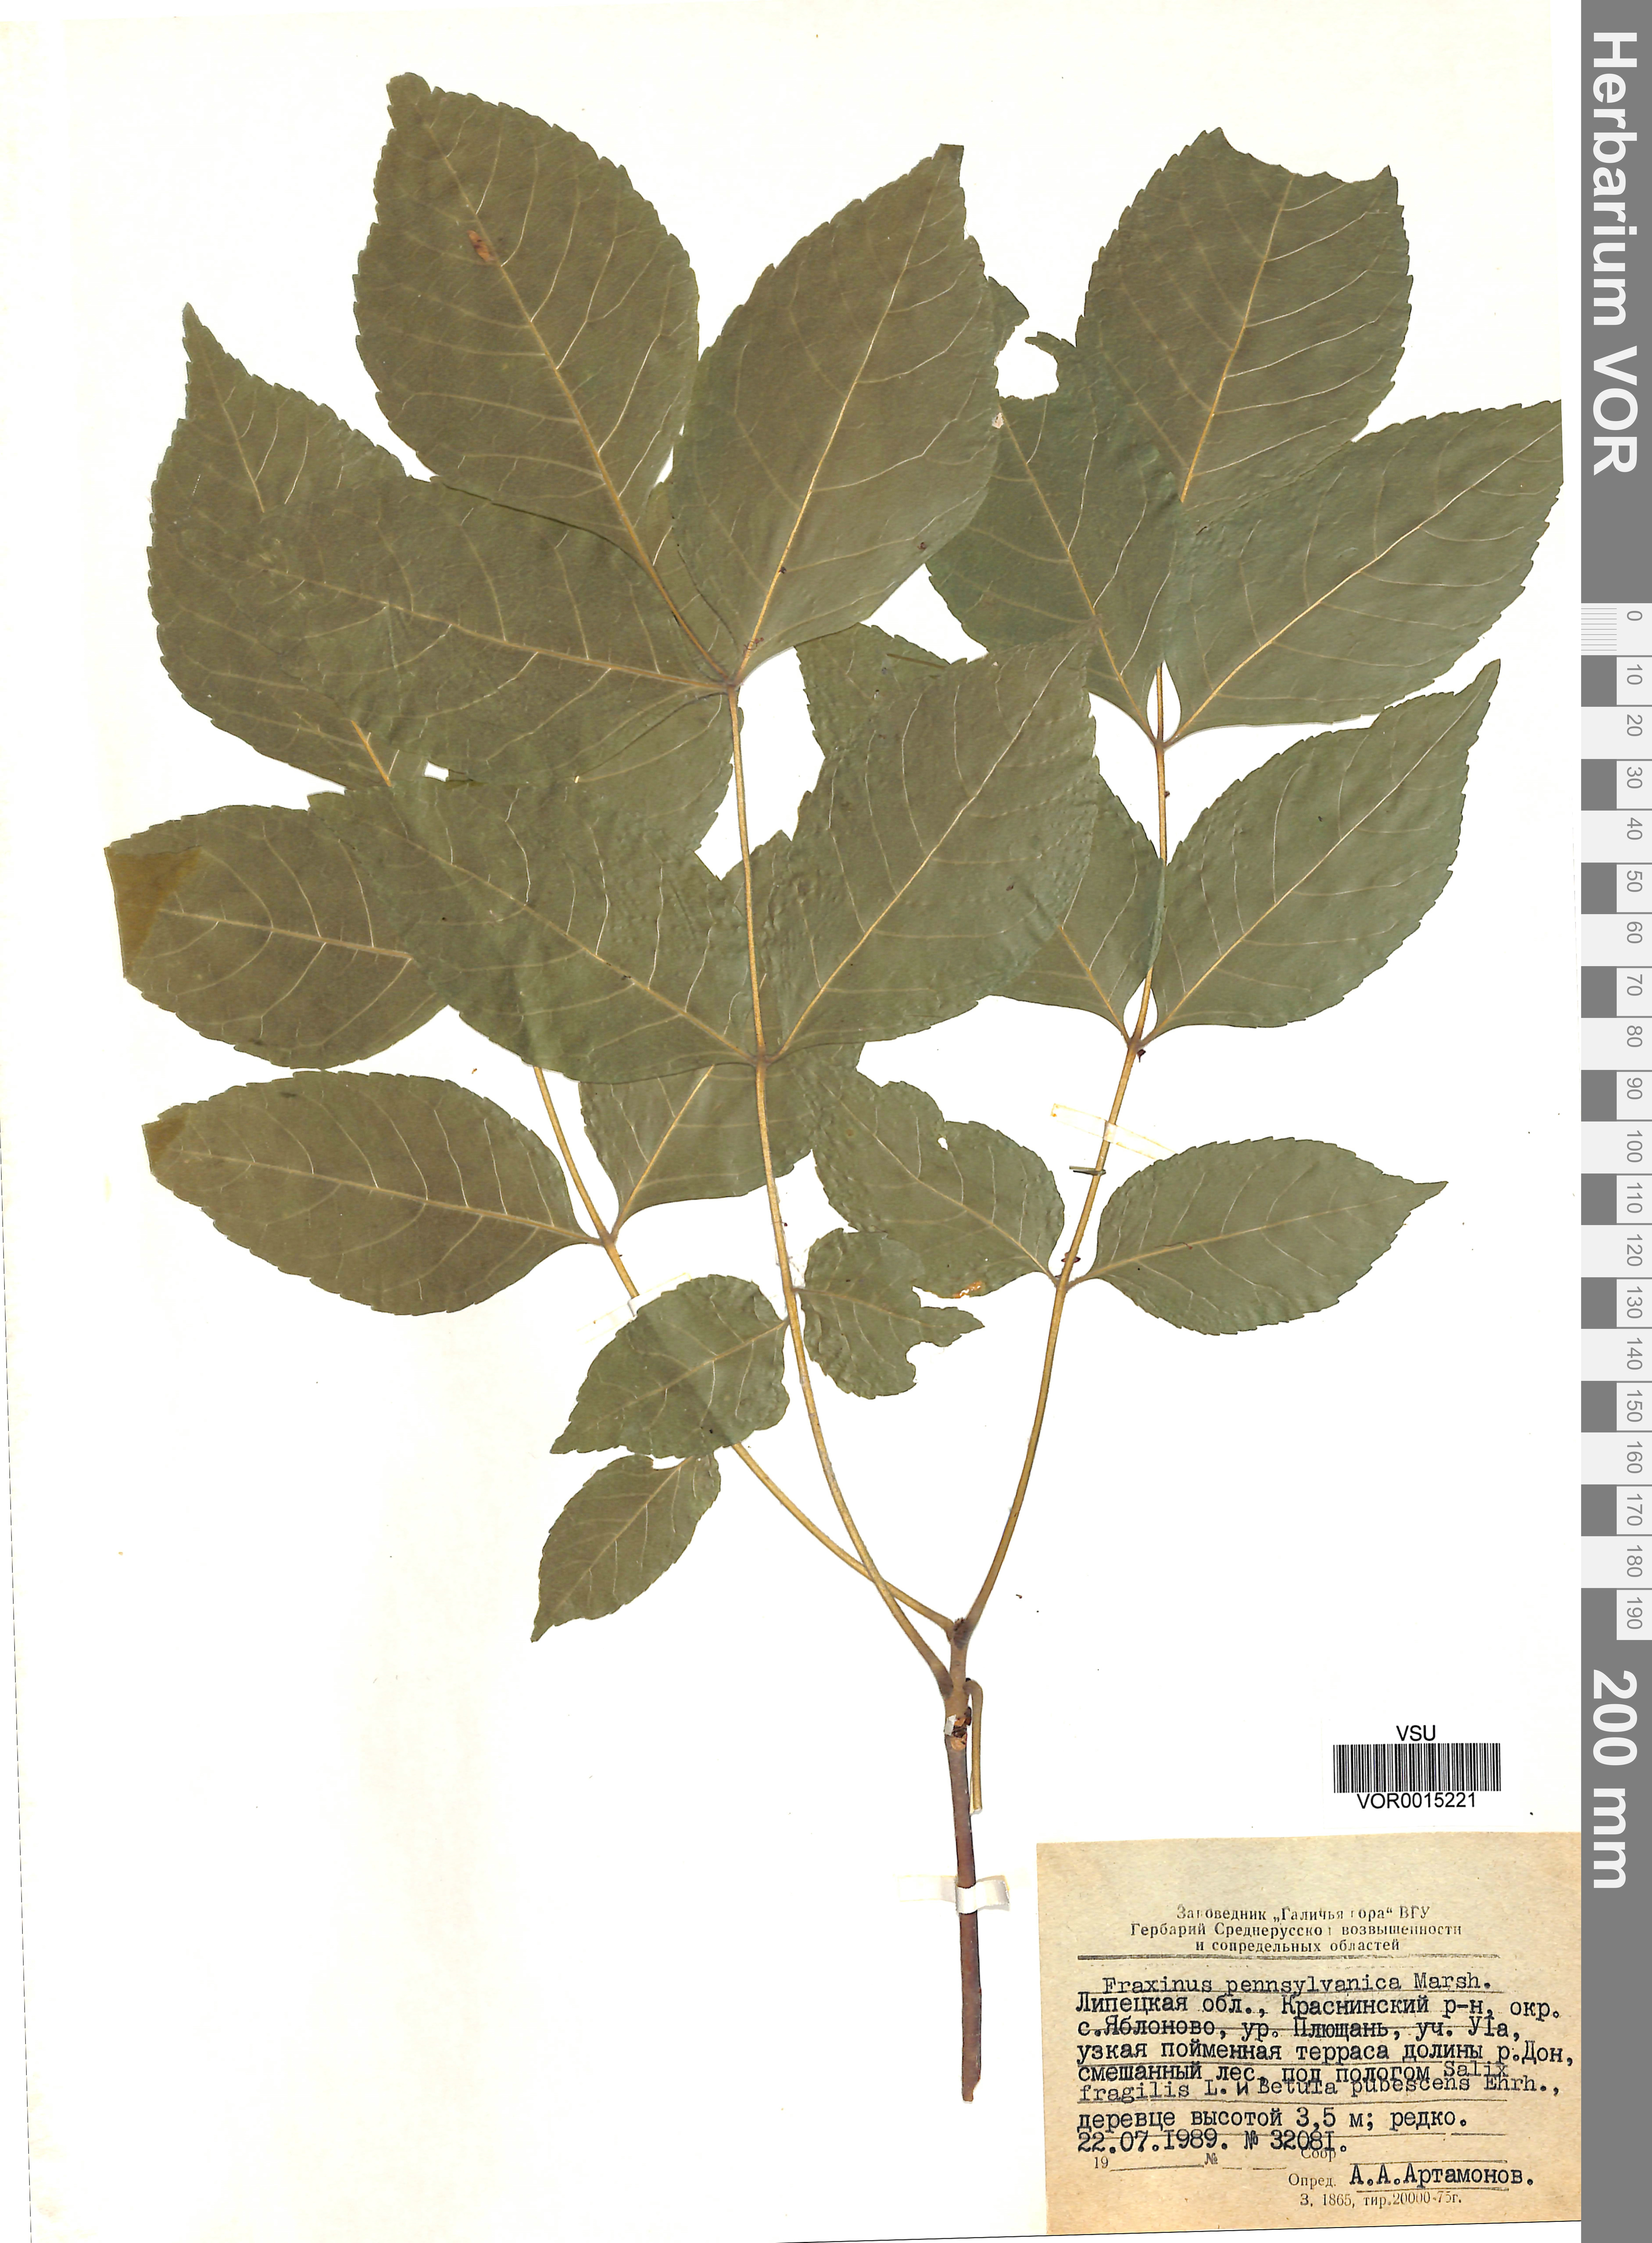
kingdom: Plantae
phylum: Tracheophyta
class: Magnoliopsida
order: Lamiales
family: Oleaceae
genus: Fraxinus
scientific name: Fraxinus pennsylvanica
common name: Green ash
